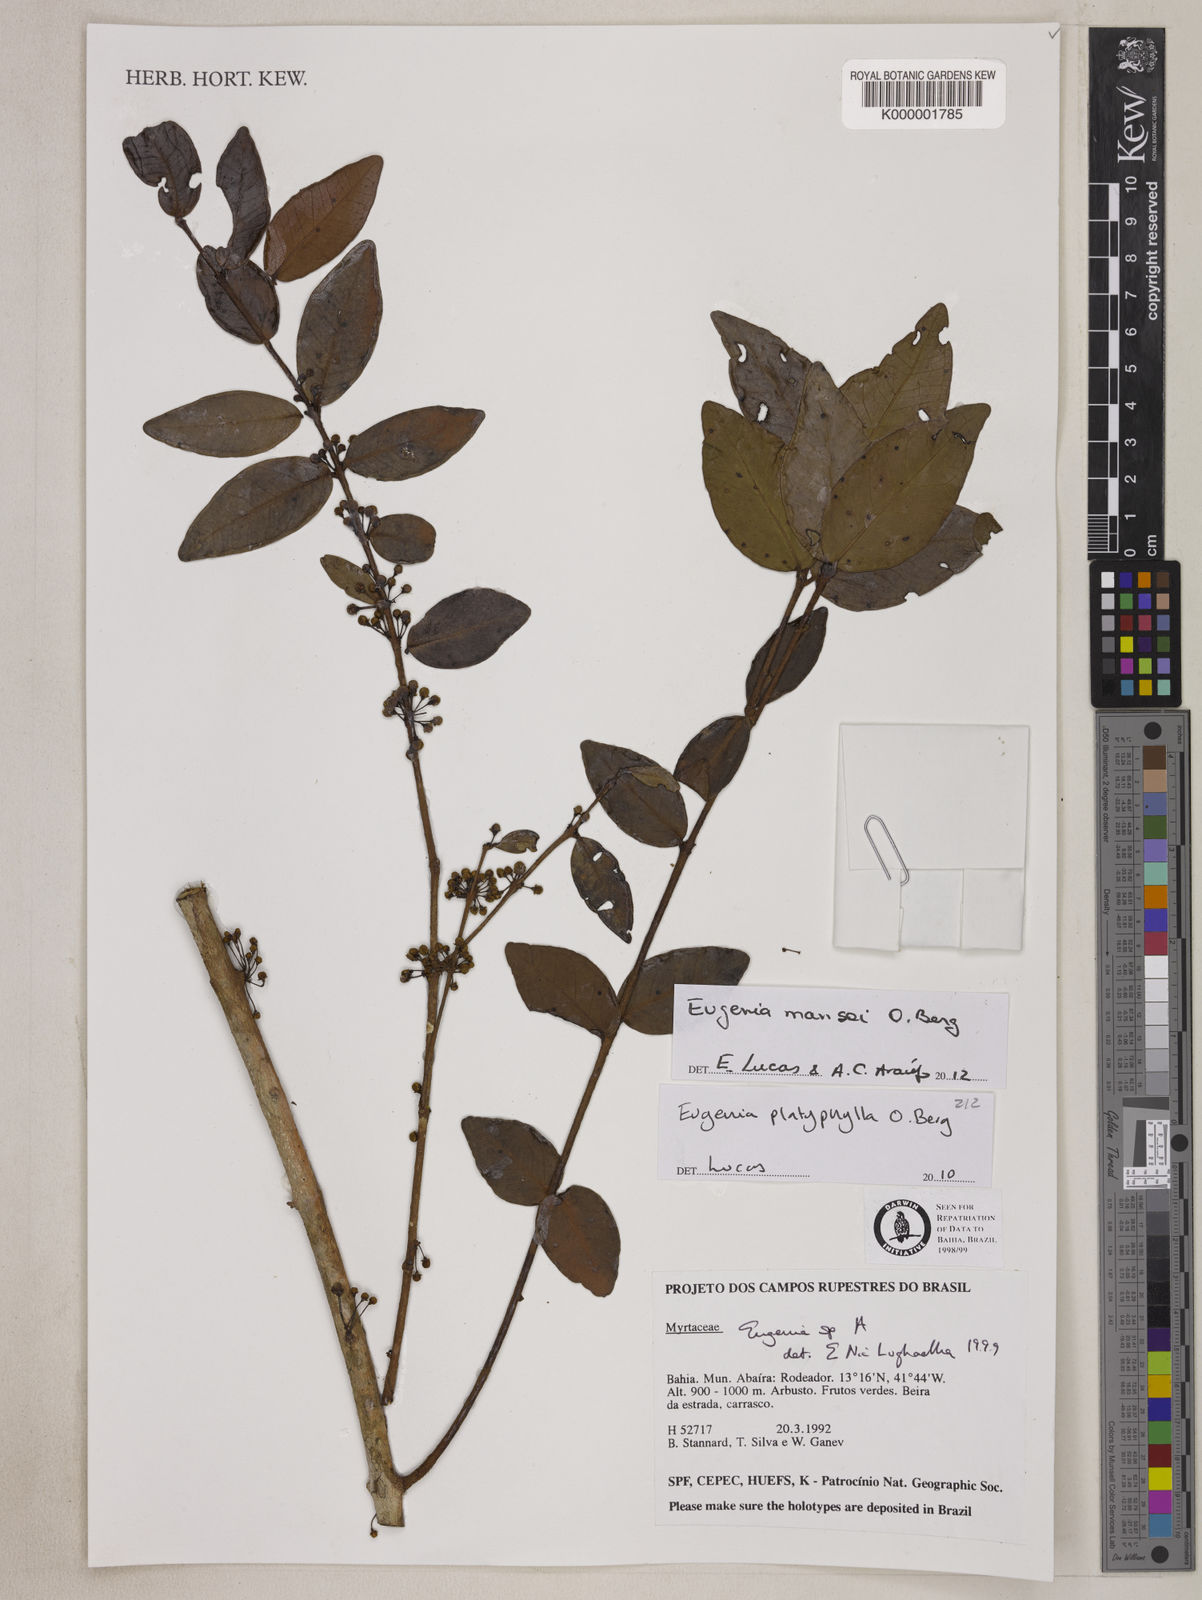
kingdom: Plantae
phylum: Tracheophyta
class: Magnoliopsida
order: Myrtales
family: Myrtaceae
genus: Eugenia
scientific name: Eugenia
